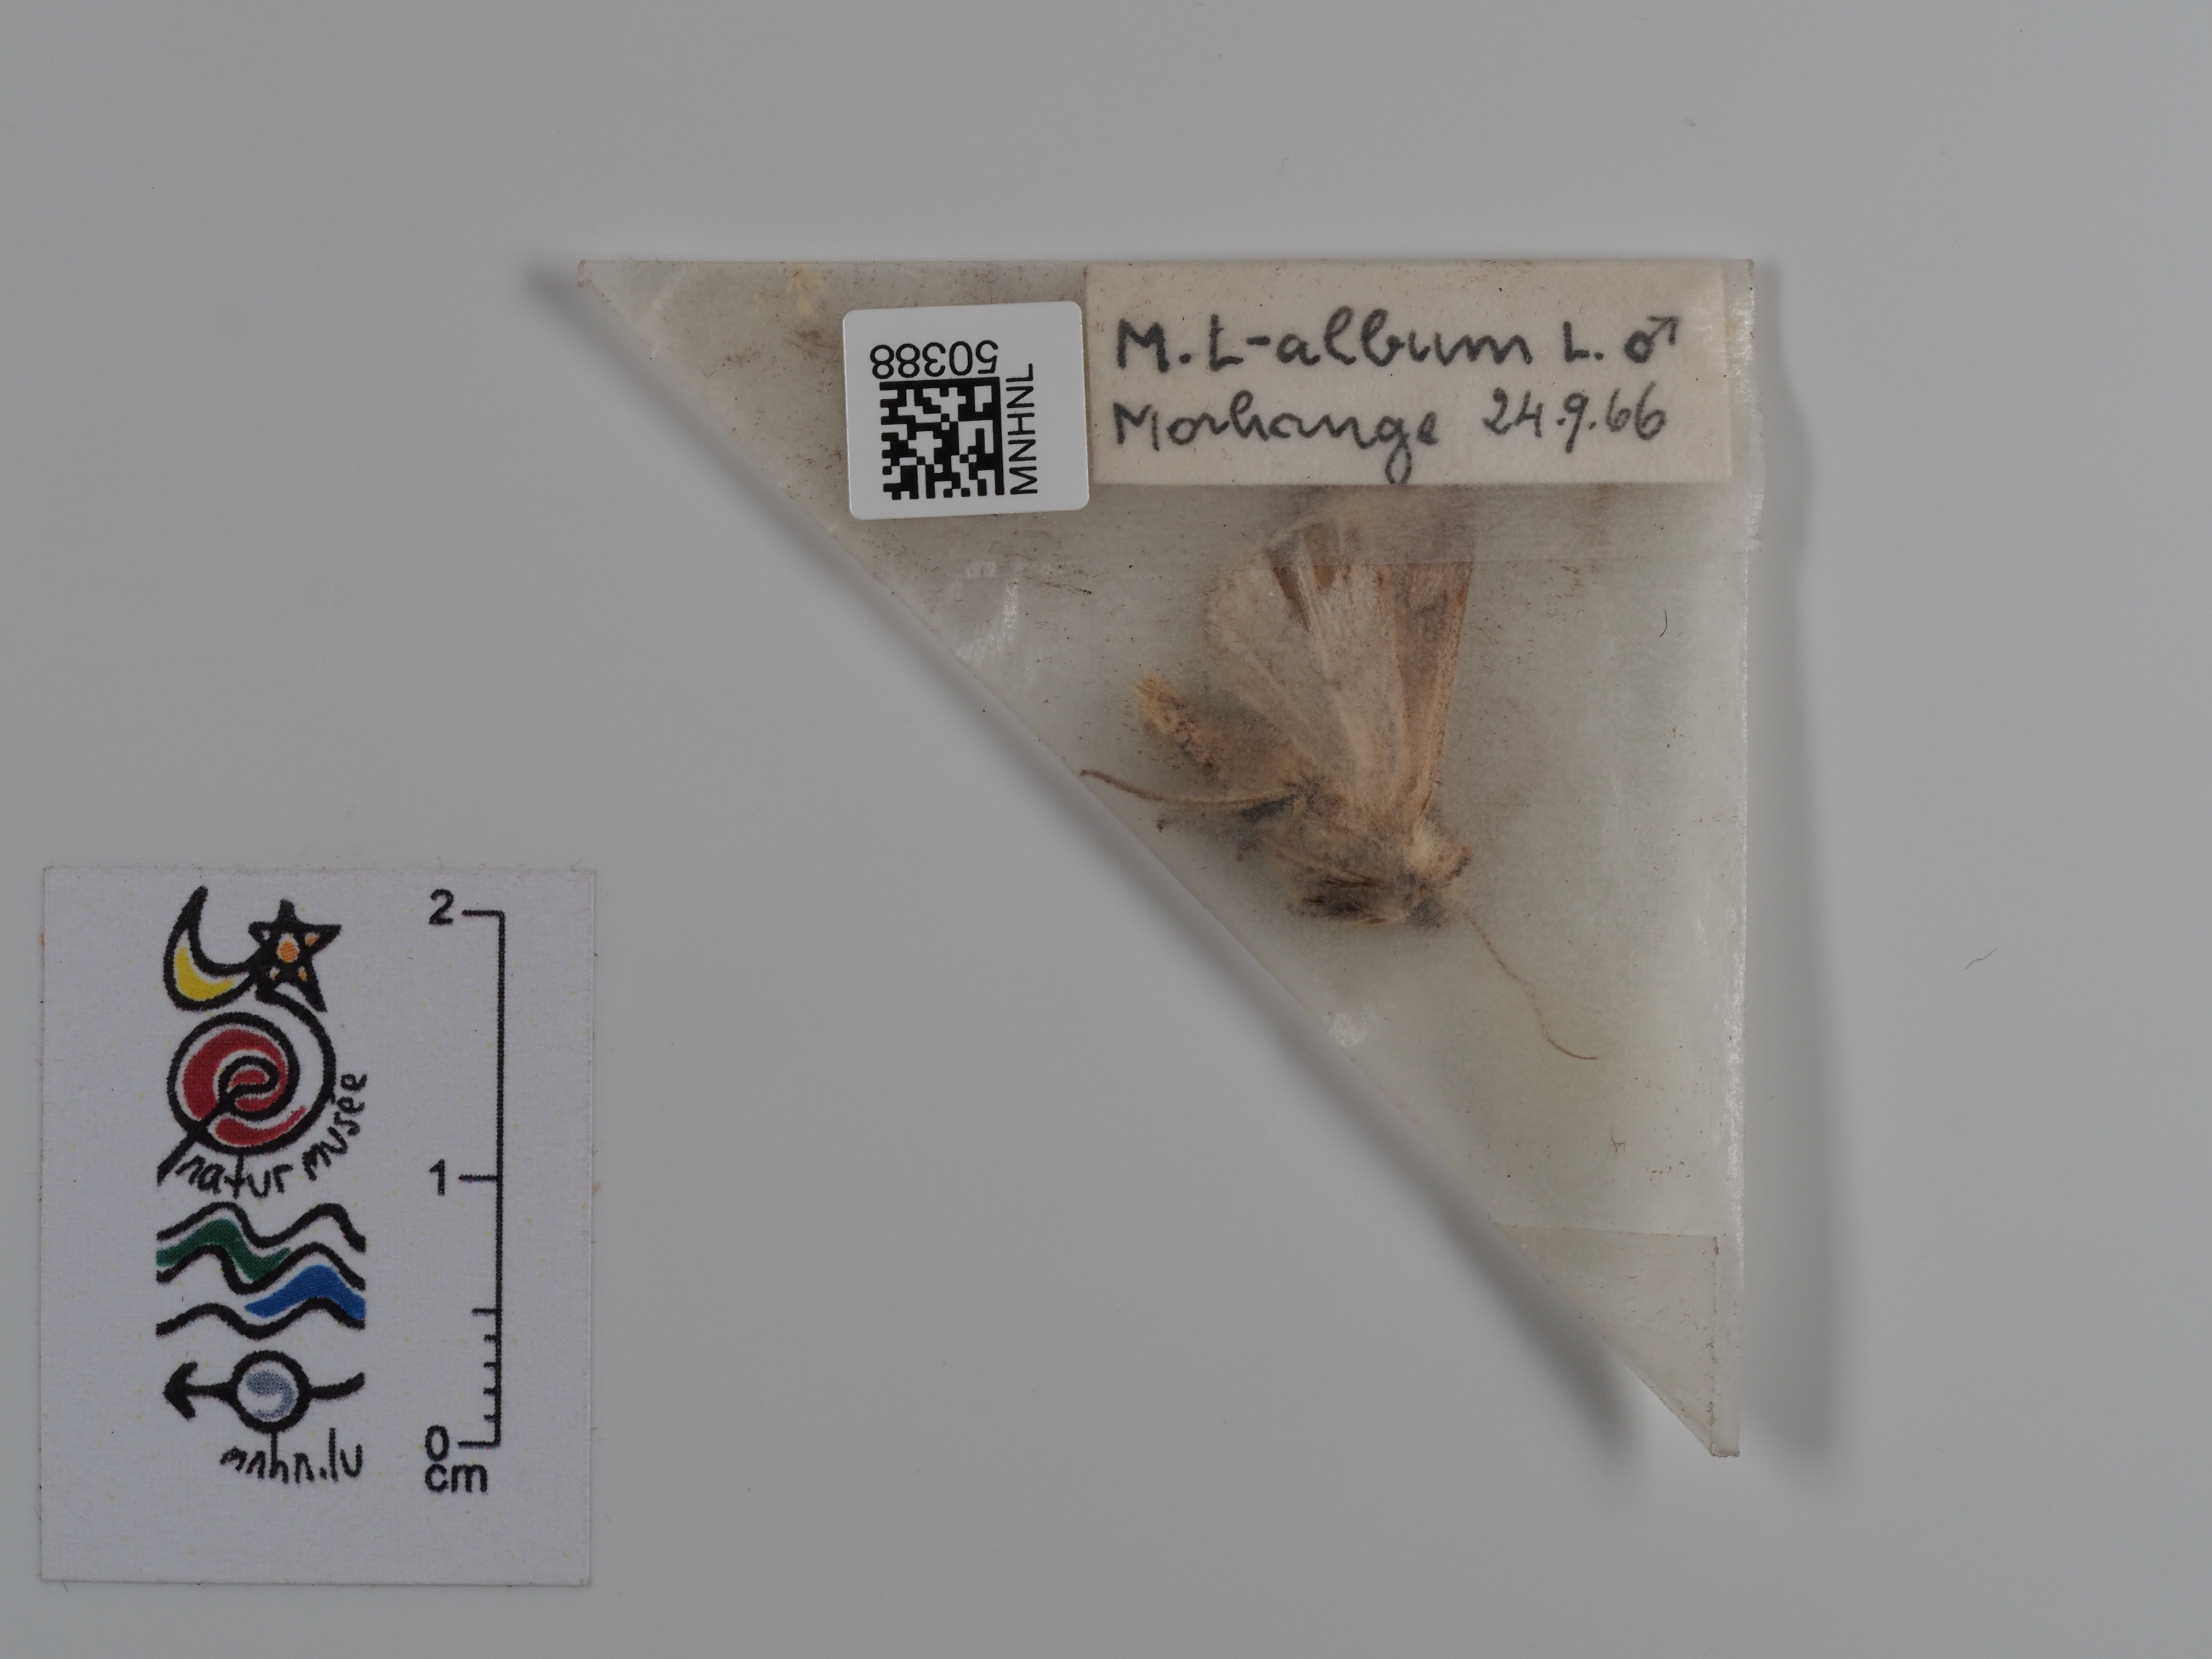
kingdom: Animalia
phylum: Arthropoda
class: Insecta
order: Lepidoptera
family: Noctuidae
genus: Mythimna
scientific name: Mythimna l-album
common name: L-album wainscot
